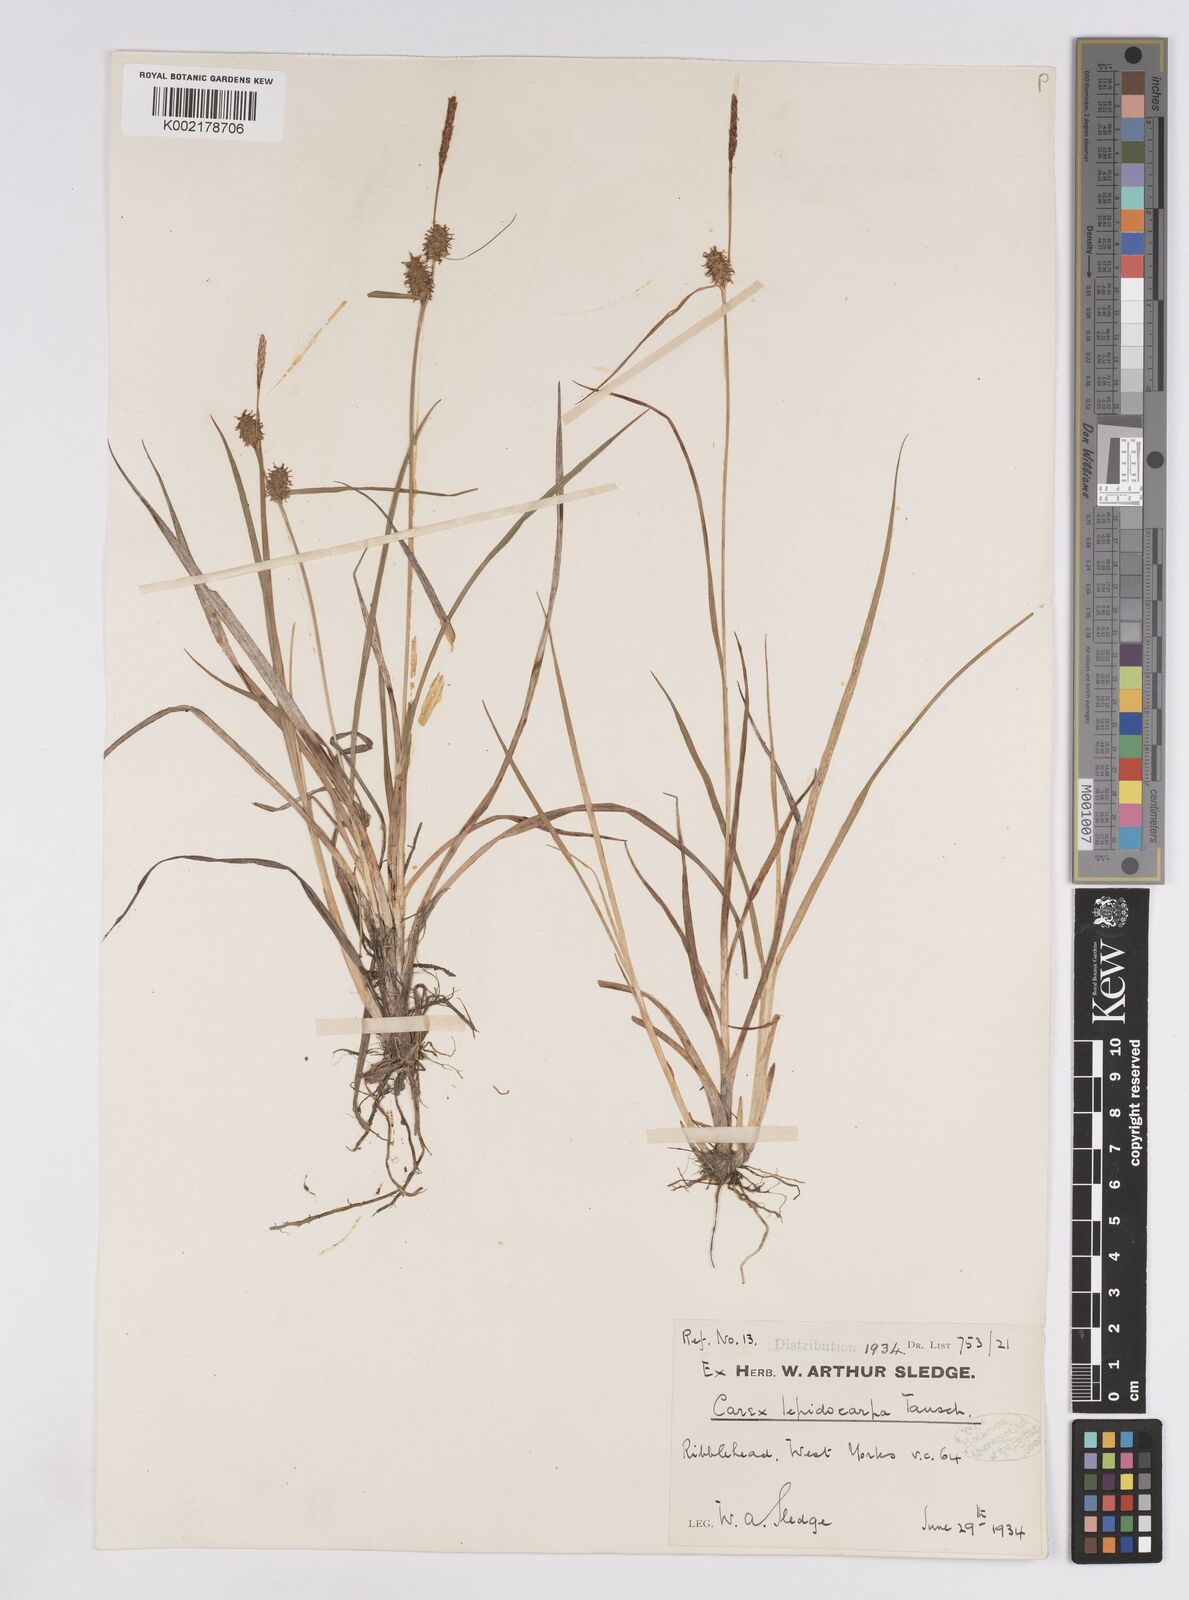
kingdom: Plantae
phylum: Tracheophyta
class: Liliopsida
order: Poales
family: Cyperaceae
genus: Carex
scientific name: Carex lepidocarpa
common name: Long-stalked yellow-sedge
